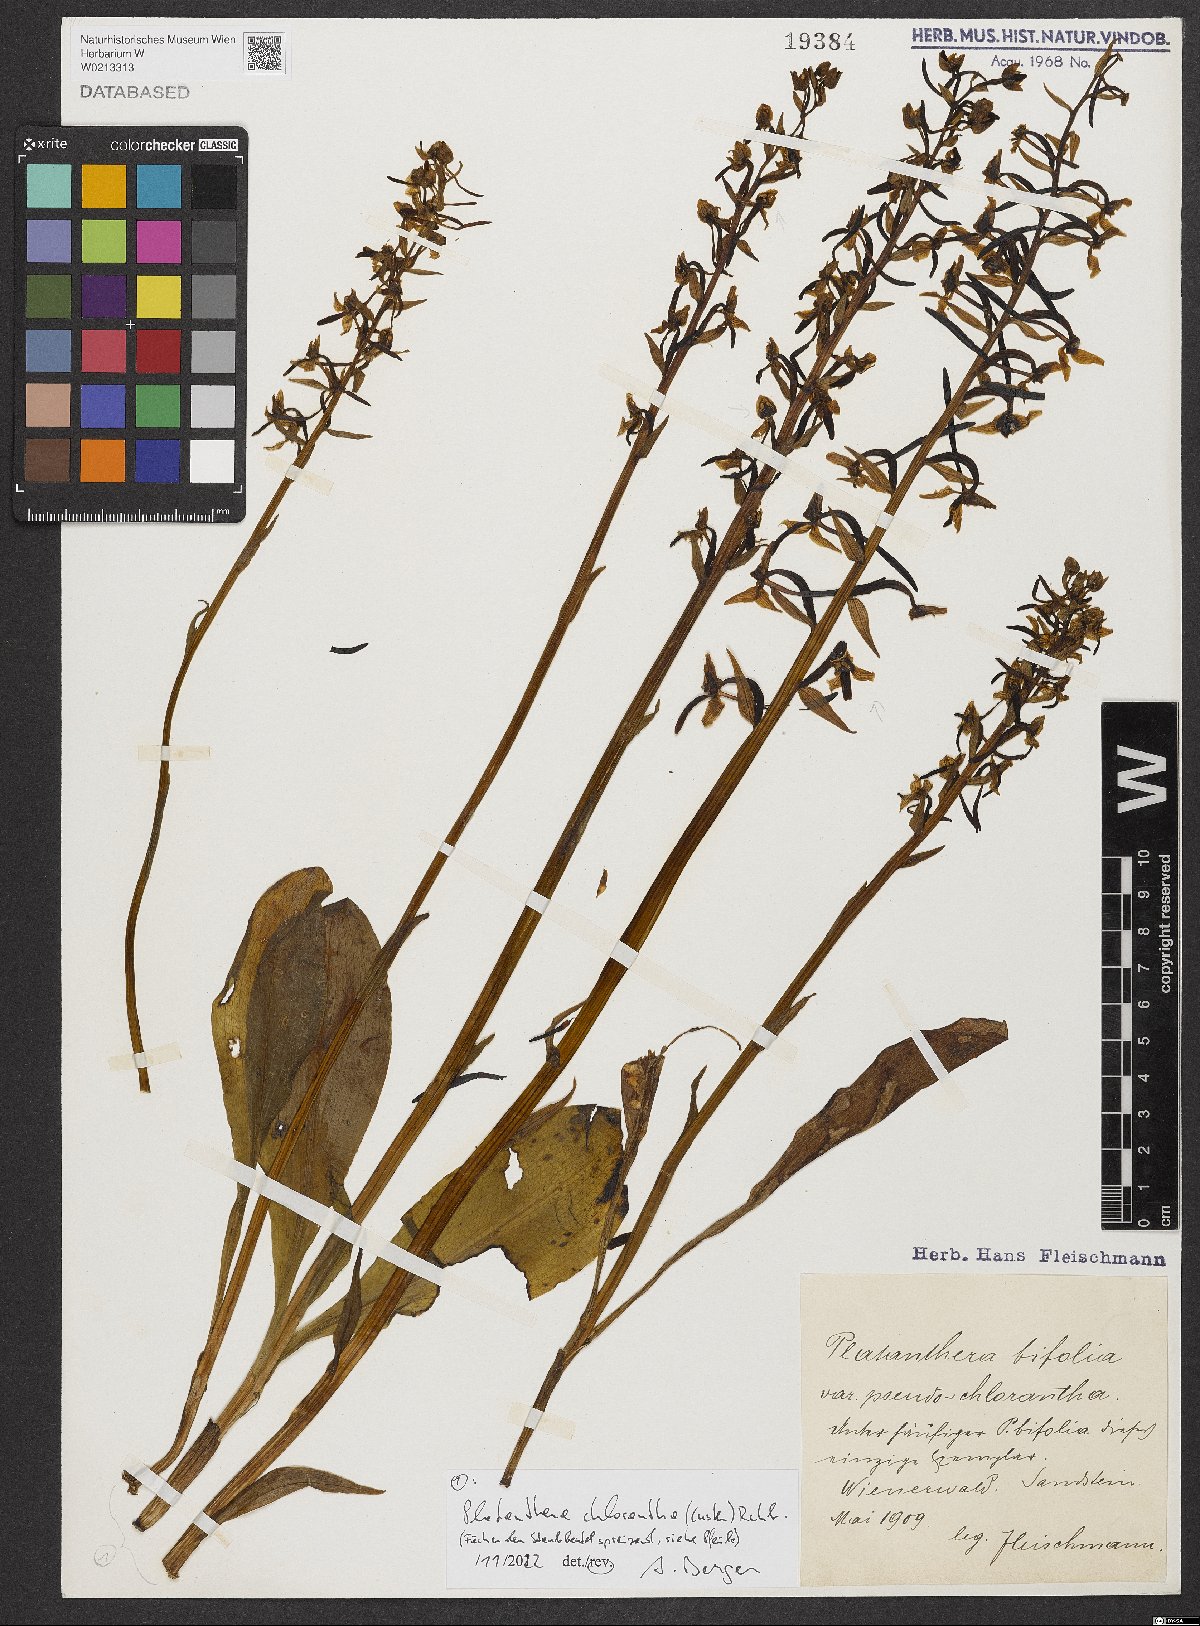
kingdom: Plantae
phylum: Tracheophyta
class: Liliopsida
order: Asparagales
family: Orchidaceae
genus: Platanthera
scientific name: Platanthera chlorantha
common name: Greater butterfly-orchid
